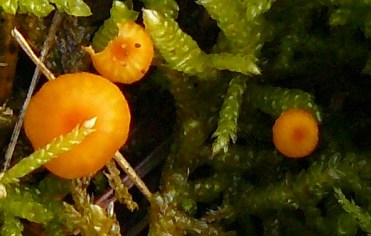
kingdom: Fungi
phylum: Basidiomycota
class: Agaricomycetes
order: Hymenochaetales
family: Rickenellaceae
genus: Rickenella
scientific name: Rickenella fibula
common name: orange mosnavlehat
